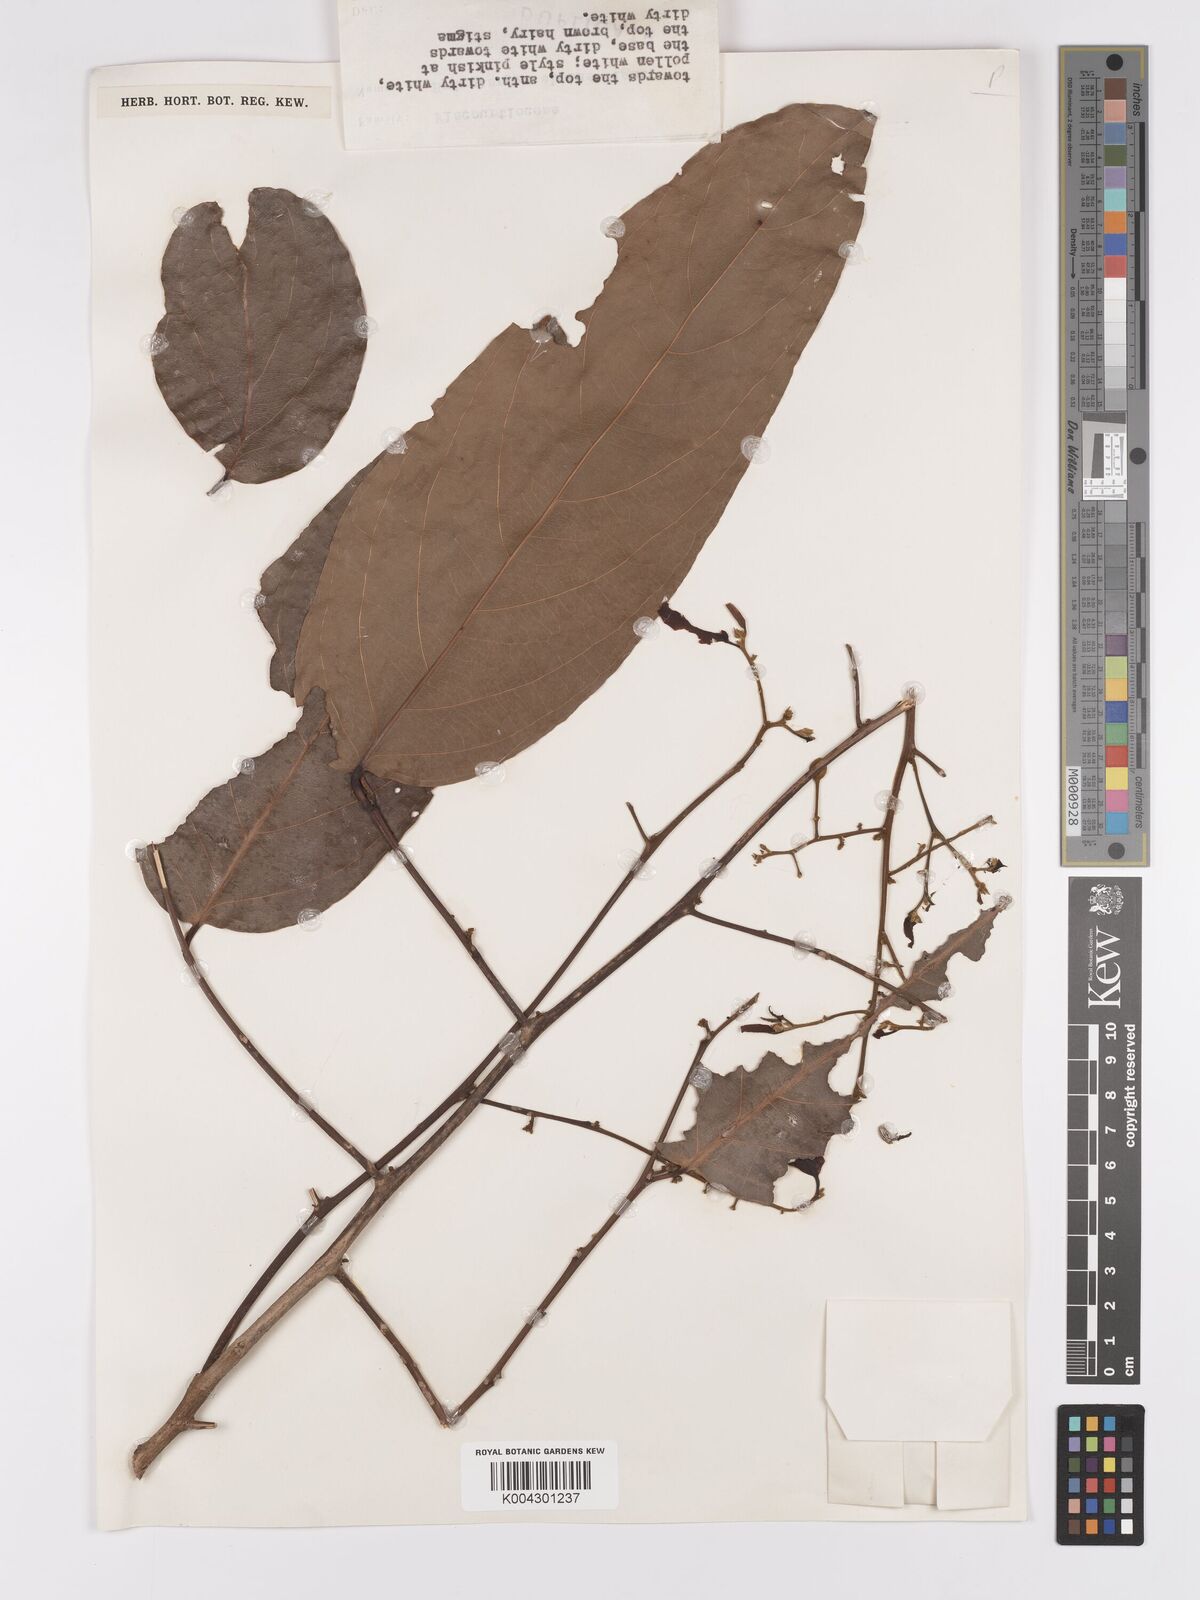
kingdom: Plantae
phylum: Tracheophyta
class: Magnoliopsida
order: Malpighiales
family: Achariaceae
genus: Hydnocarpus
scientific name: Hydnocarpus alpinus
